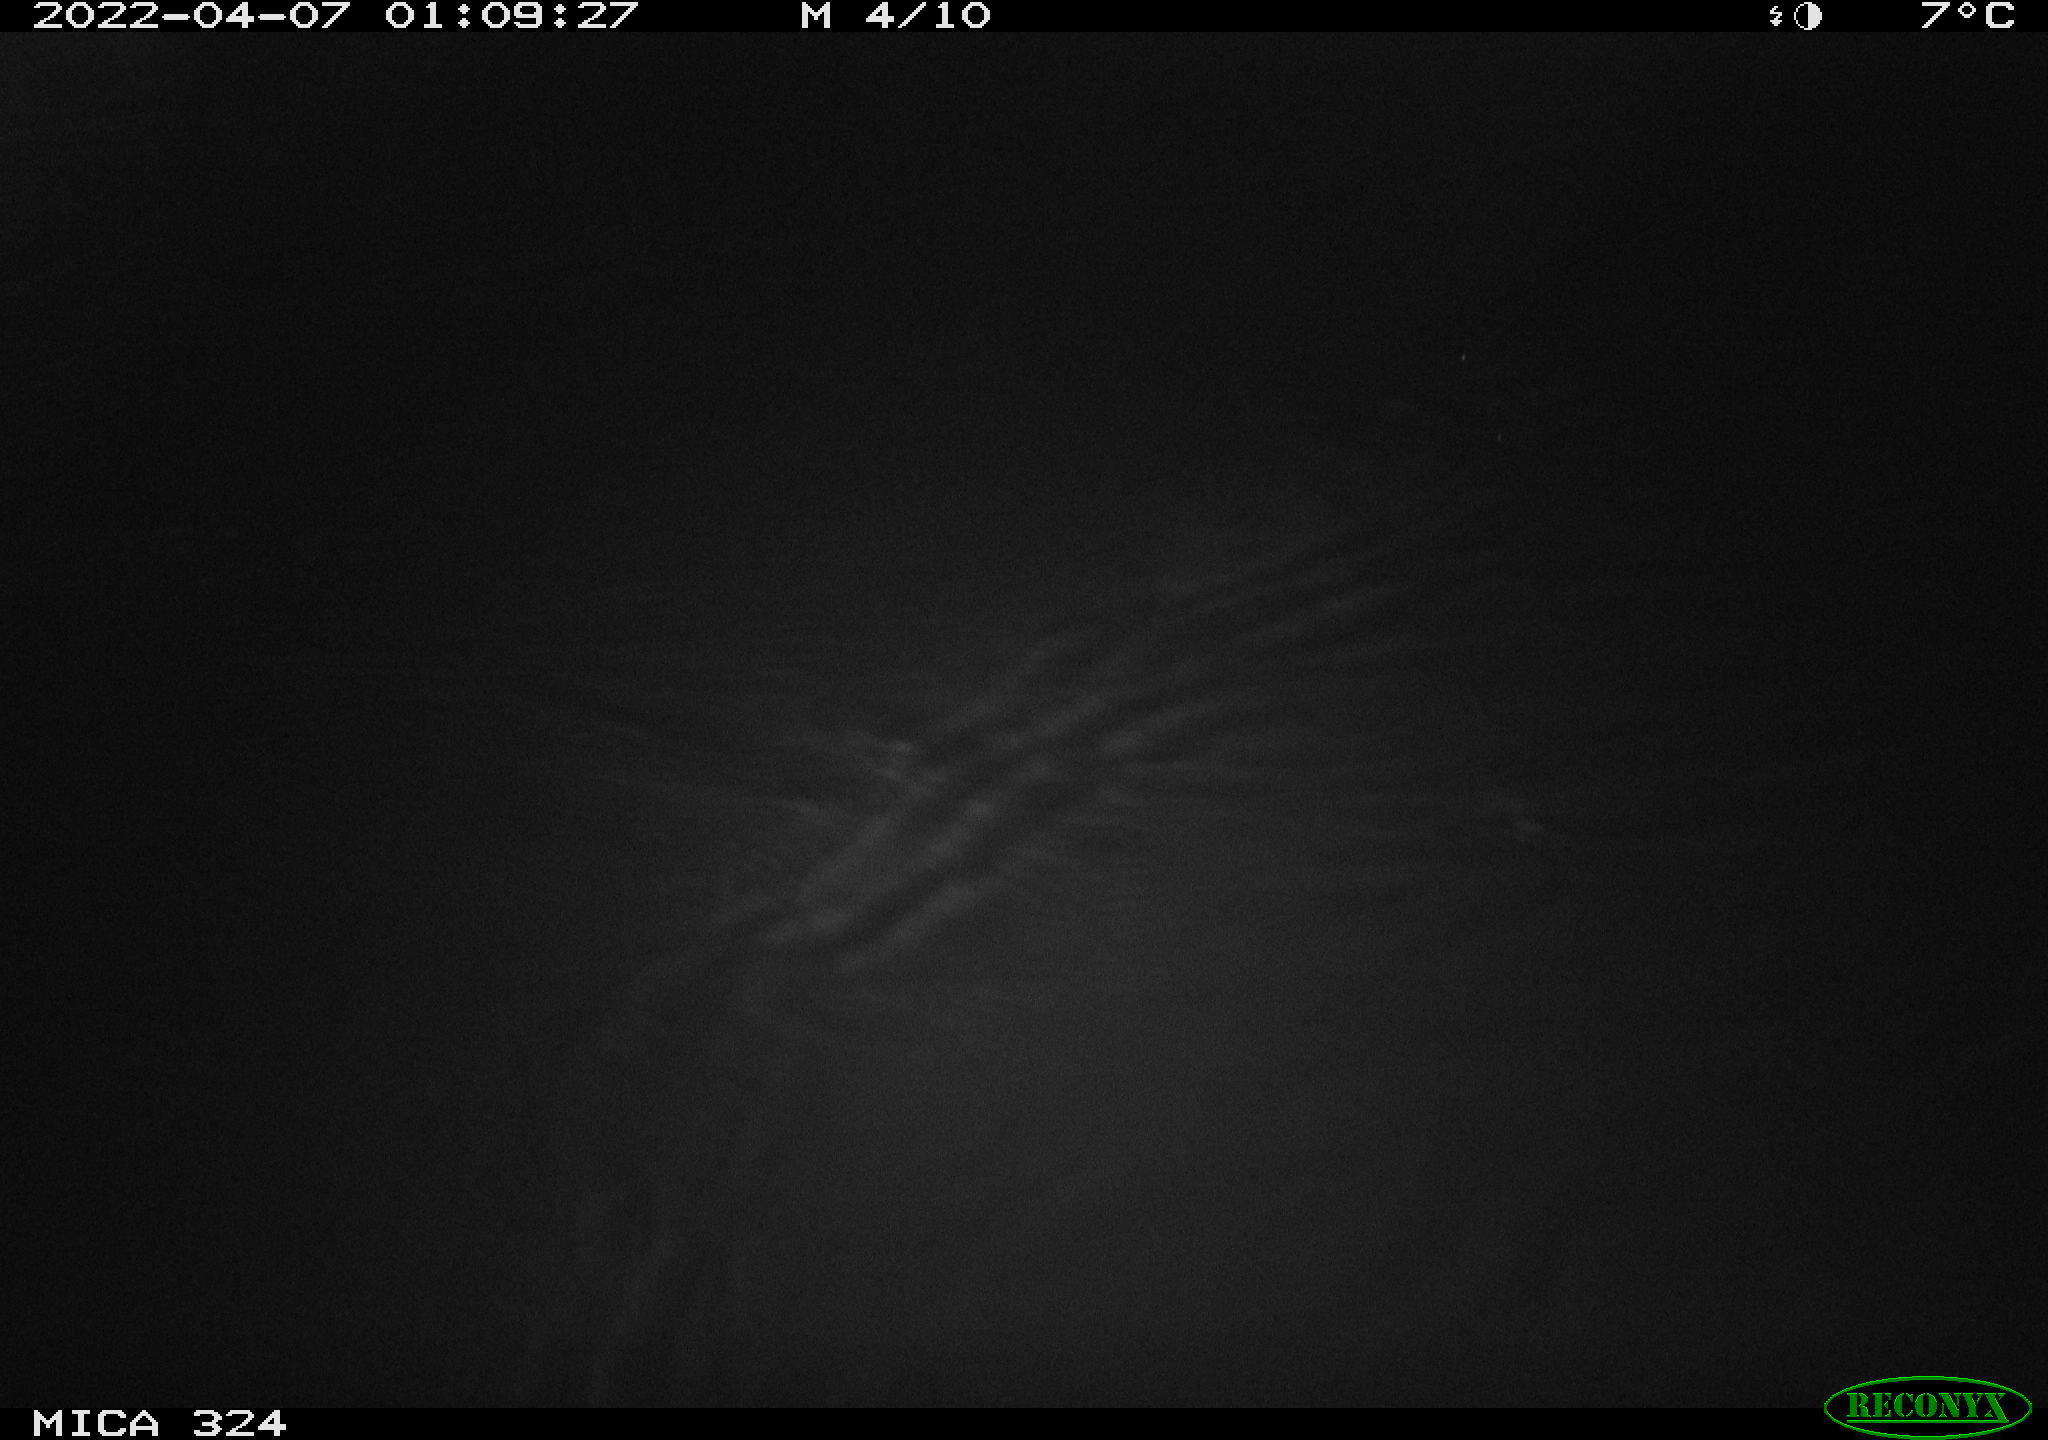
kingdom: Animalia
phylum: Chordata
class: Mammalia
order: Rodentia
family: Muridae
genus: Rattus
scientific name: Rattus norvegicus
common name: Brown rat
